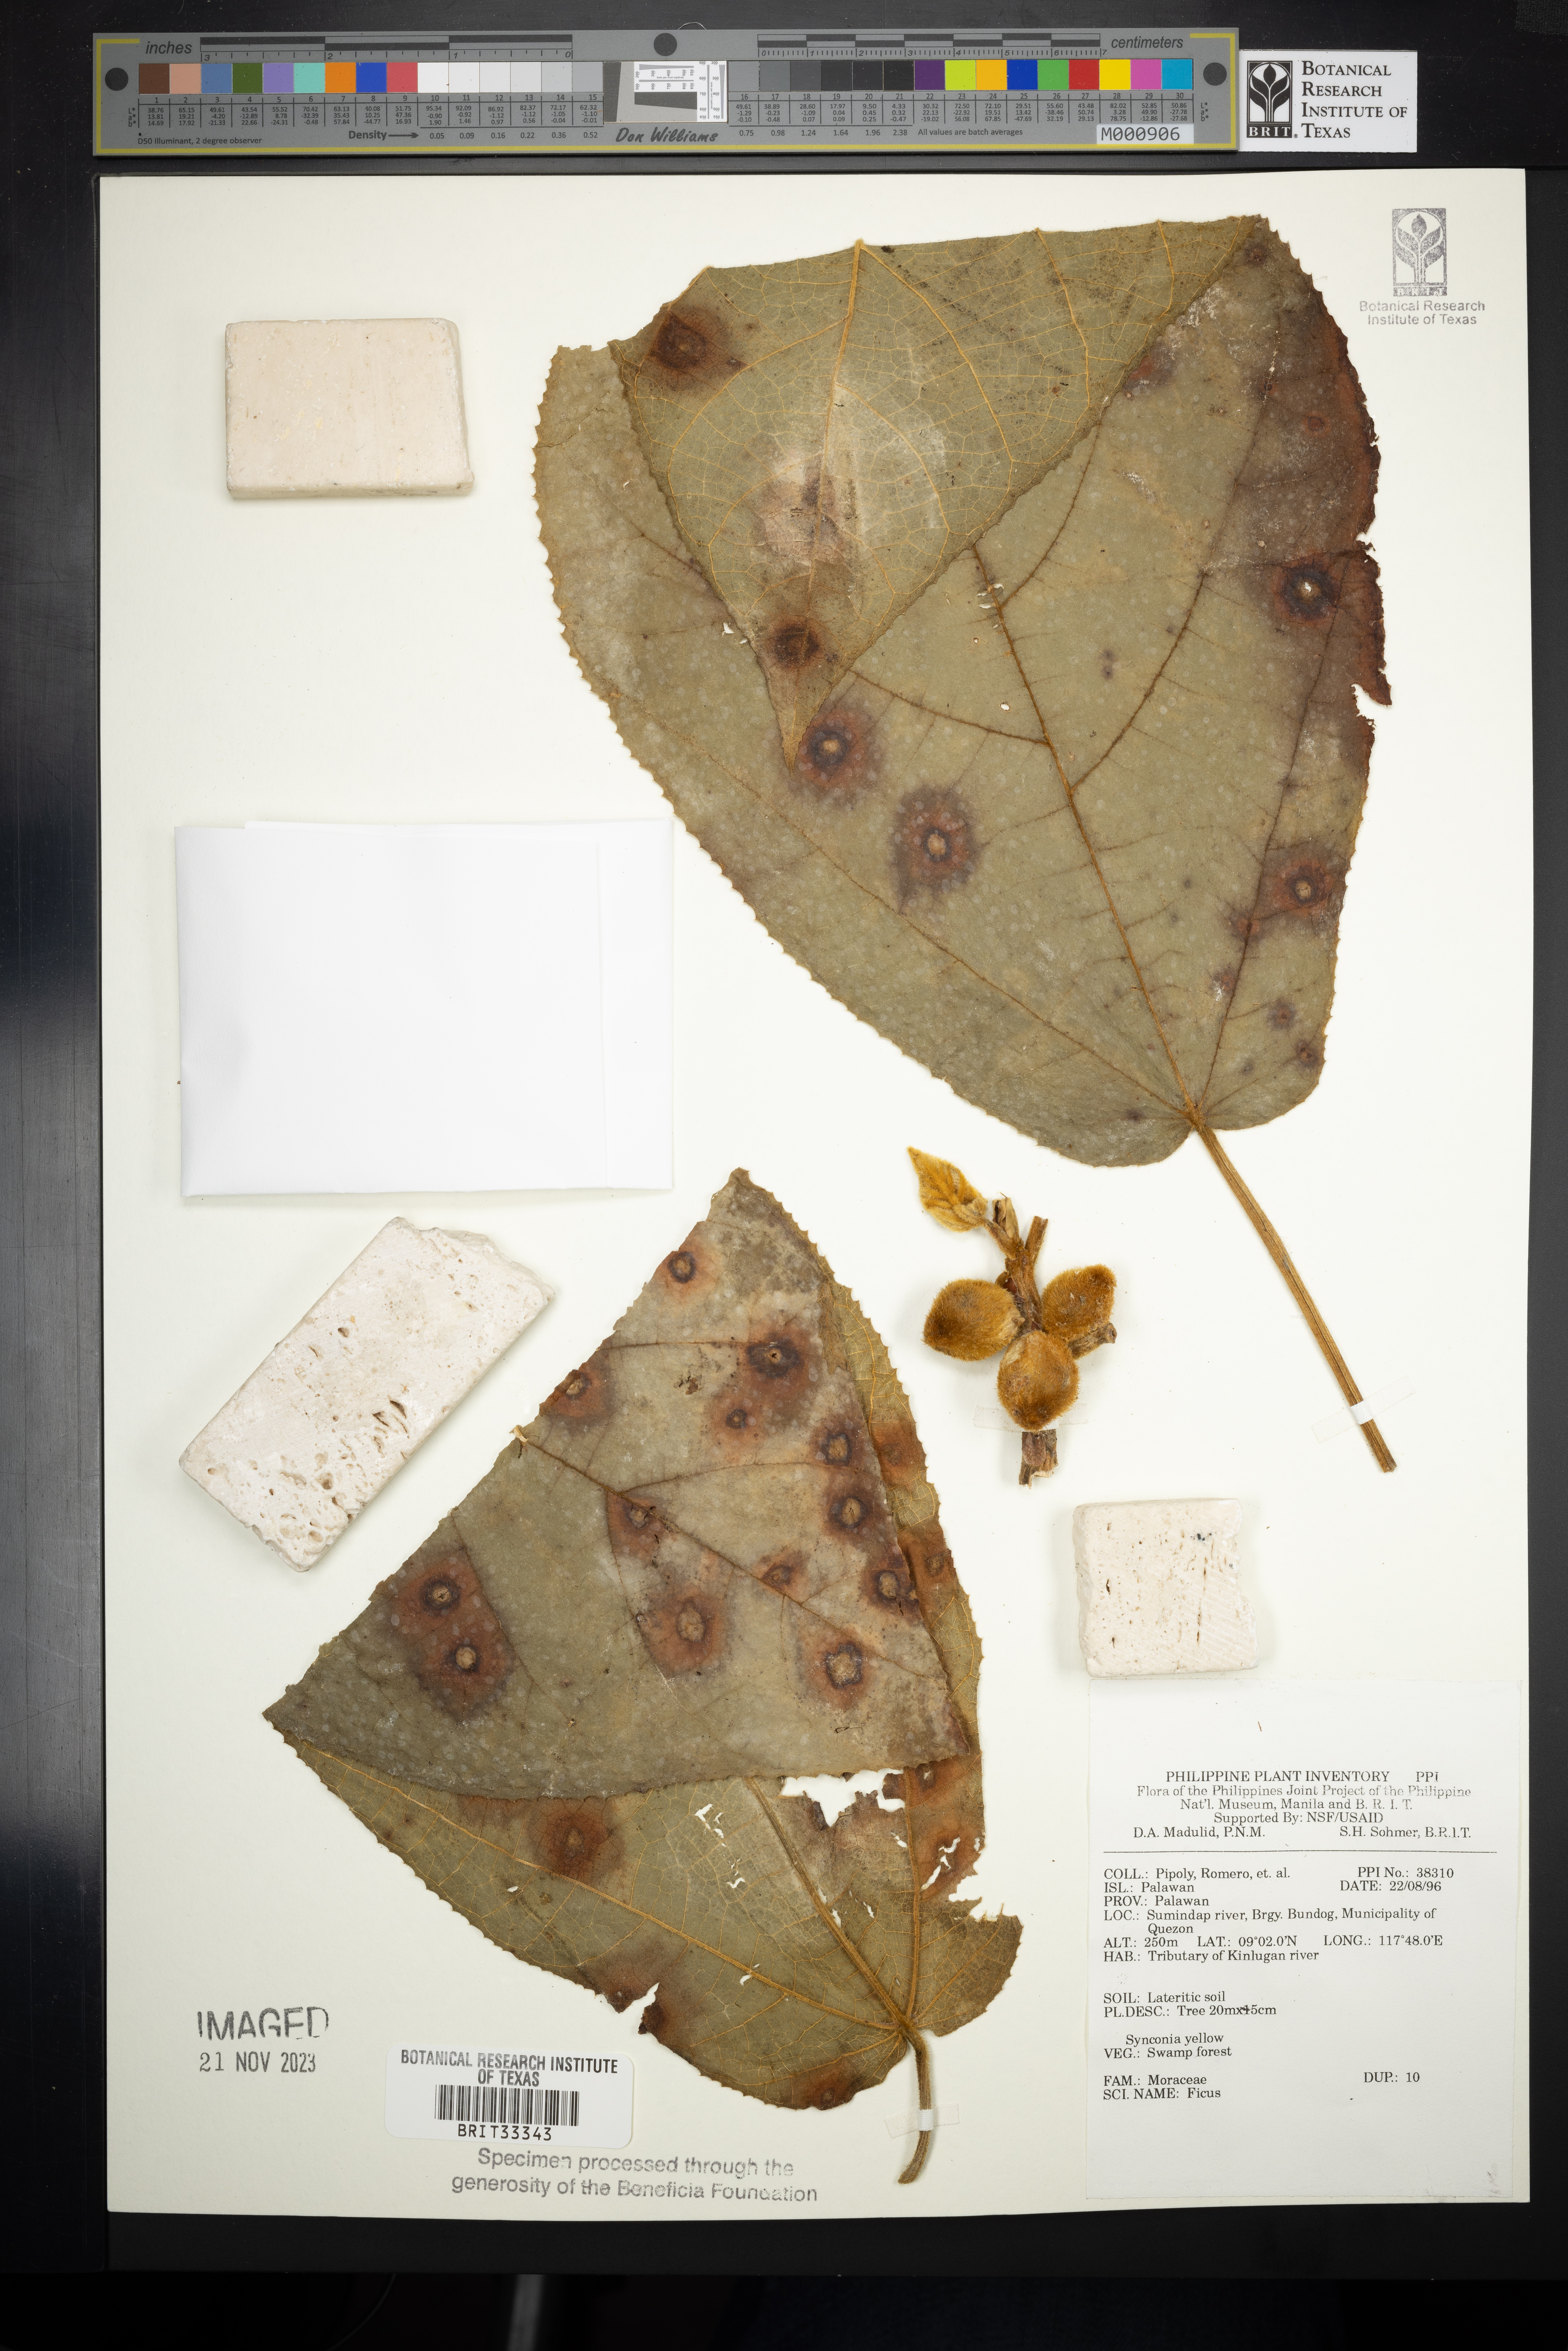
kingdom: Plantae
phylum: Tracheophyta
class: Magnoliopsida
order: Rosales
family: Moraceae
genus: Ficus
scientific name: Ficus
